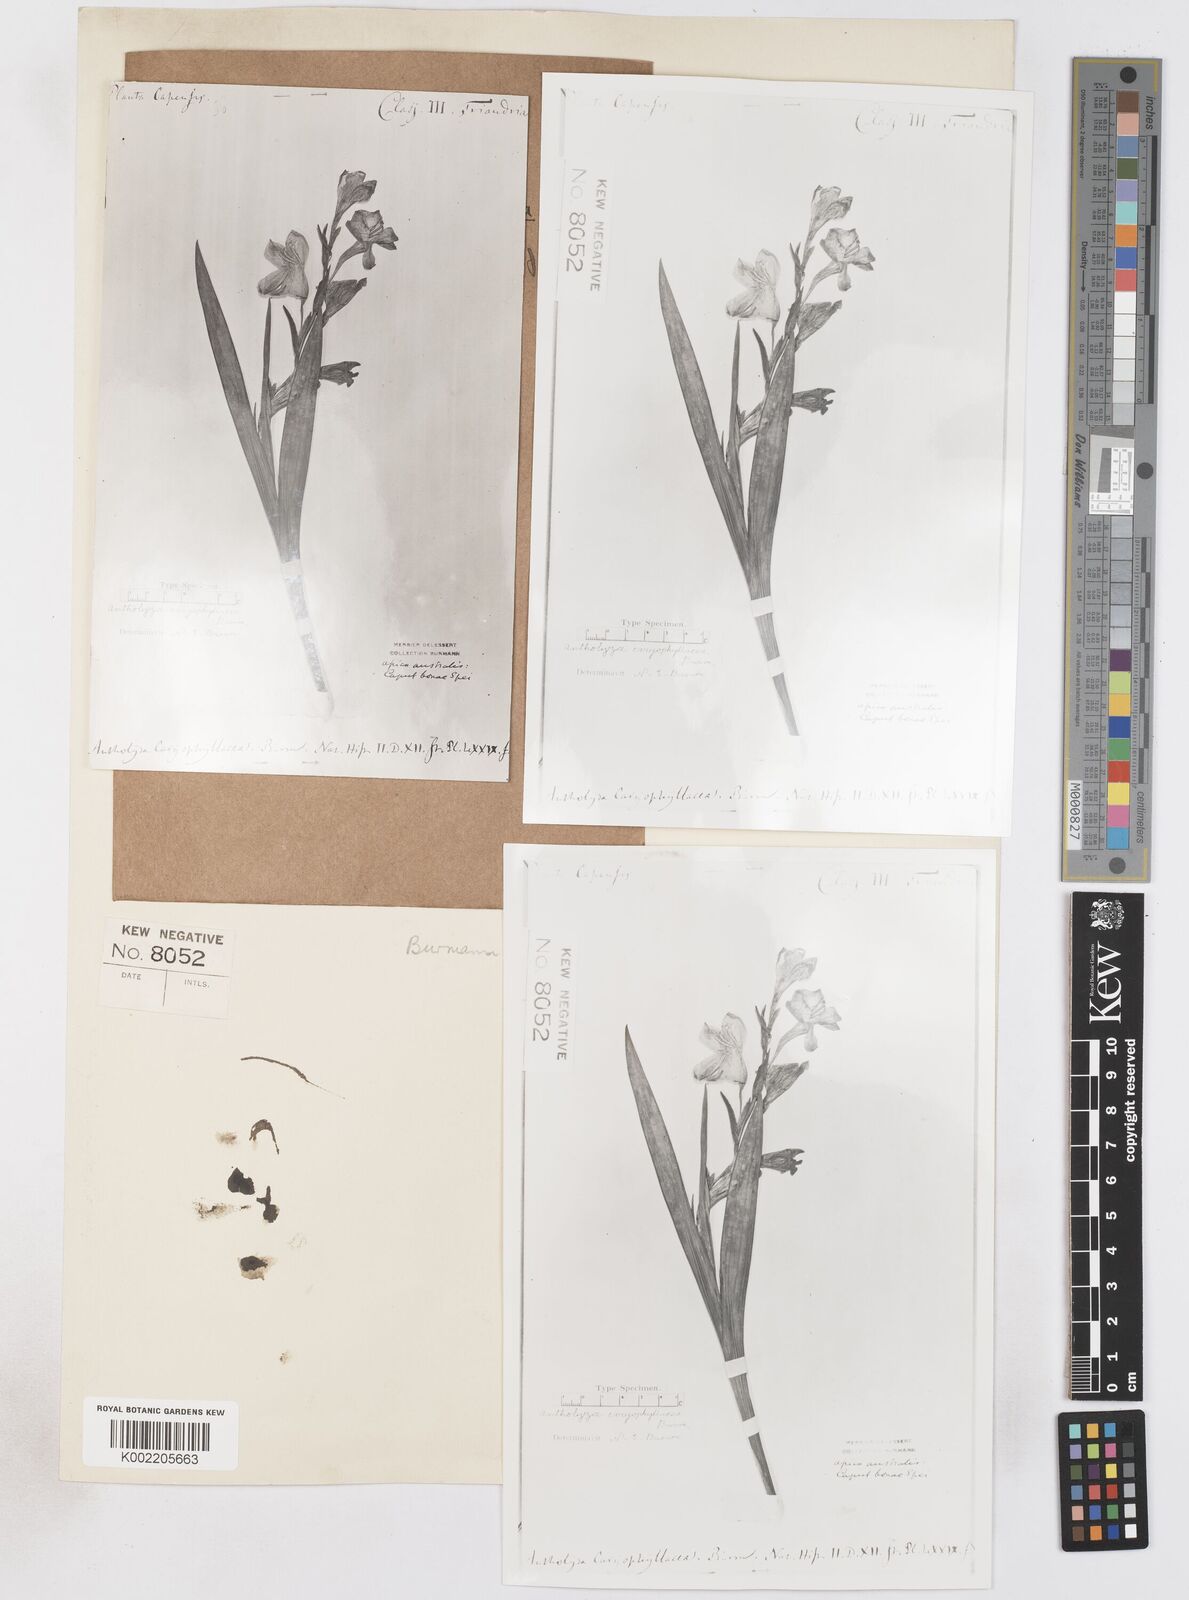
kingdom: Plantae
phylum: Tracheophyta
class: Liliopsida
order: Asparagales
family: Iridaceae
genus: Gladiolus
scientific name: Gladiolus caryophyllaceus
